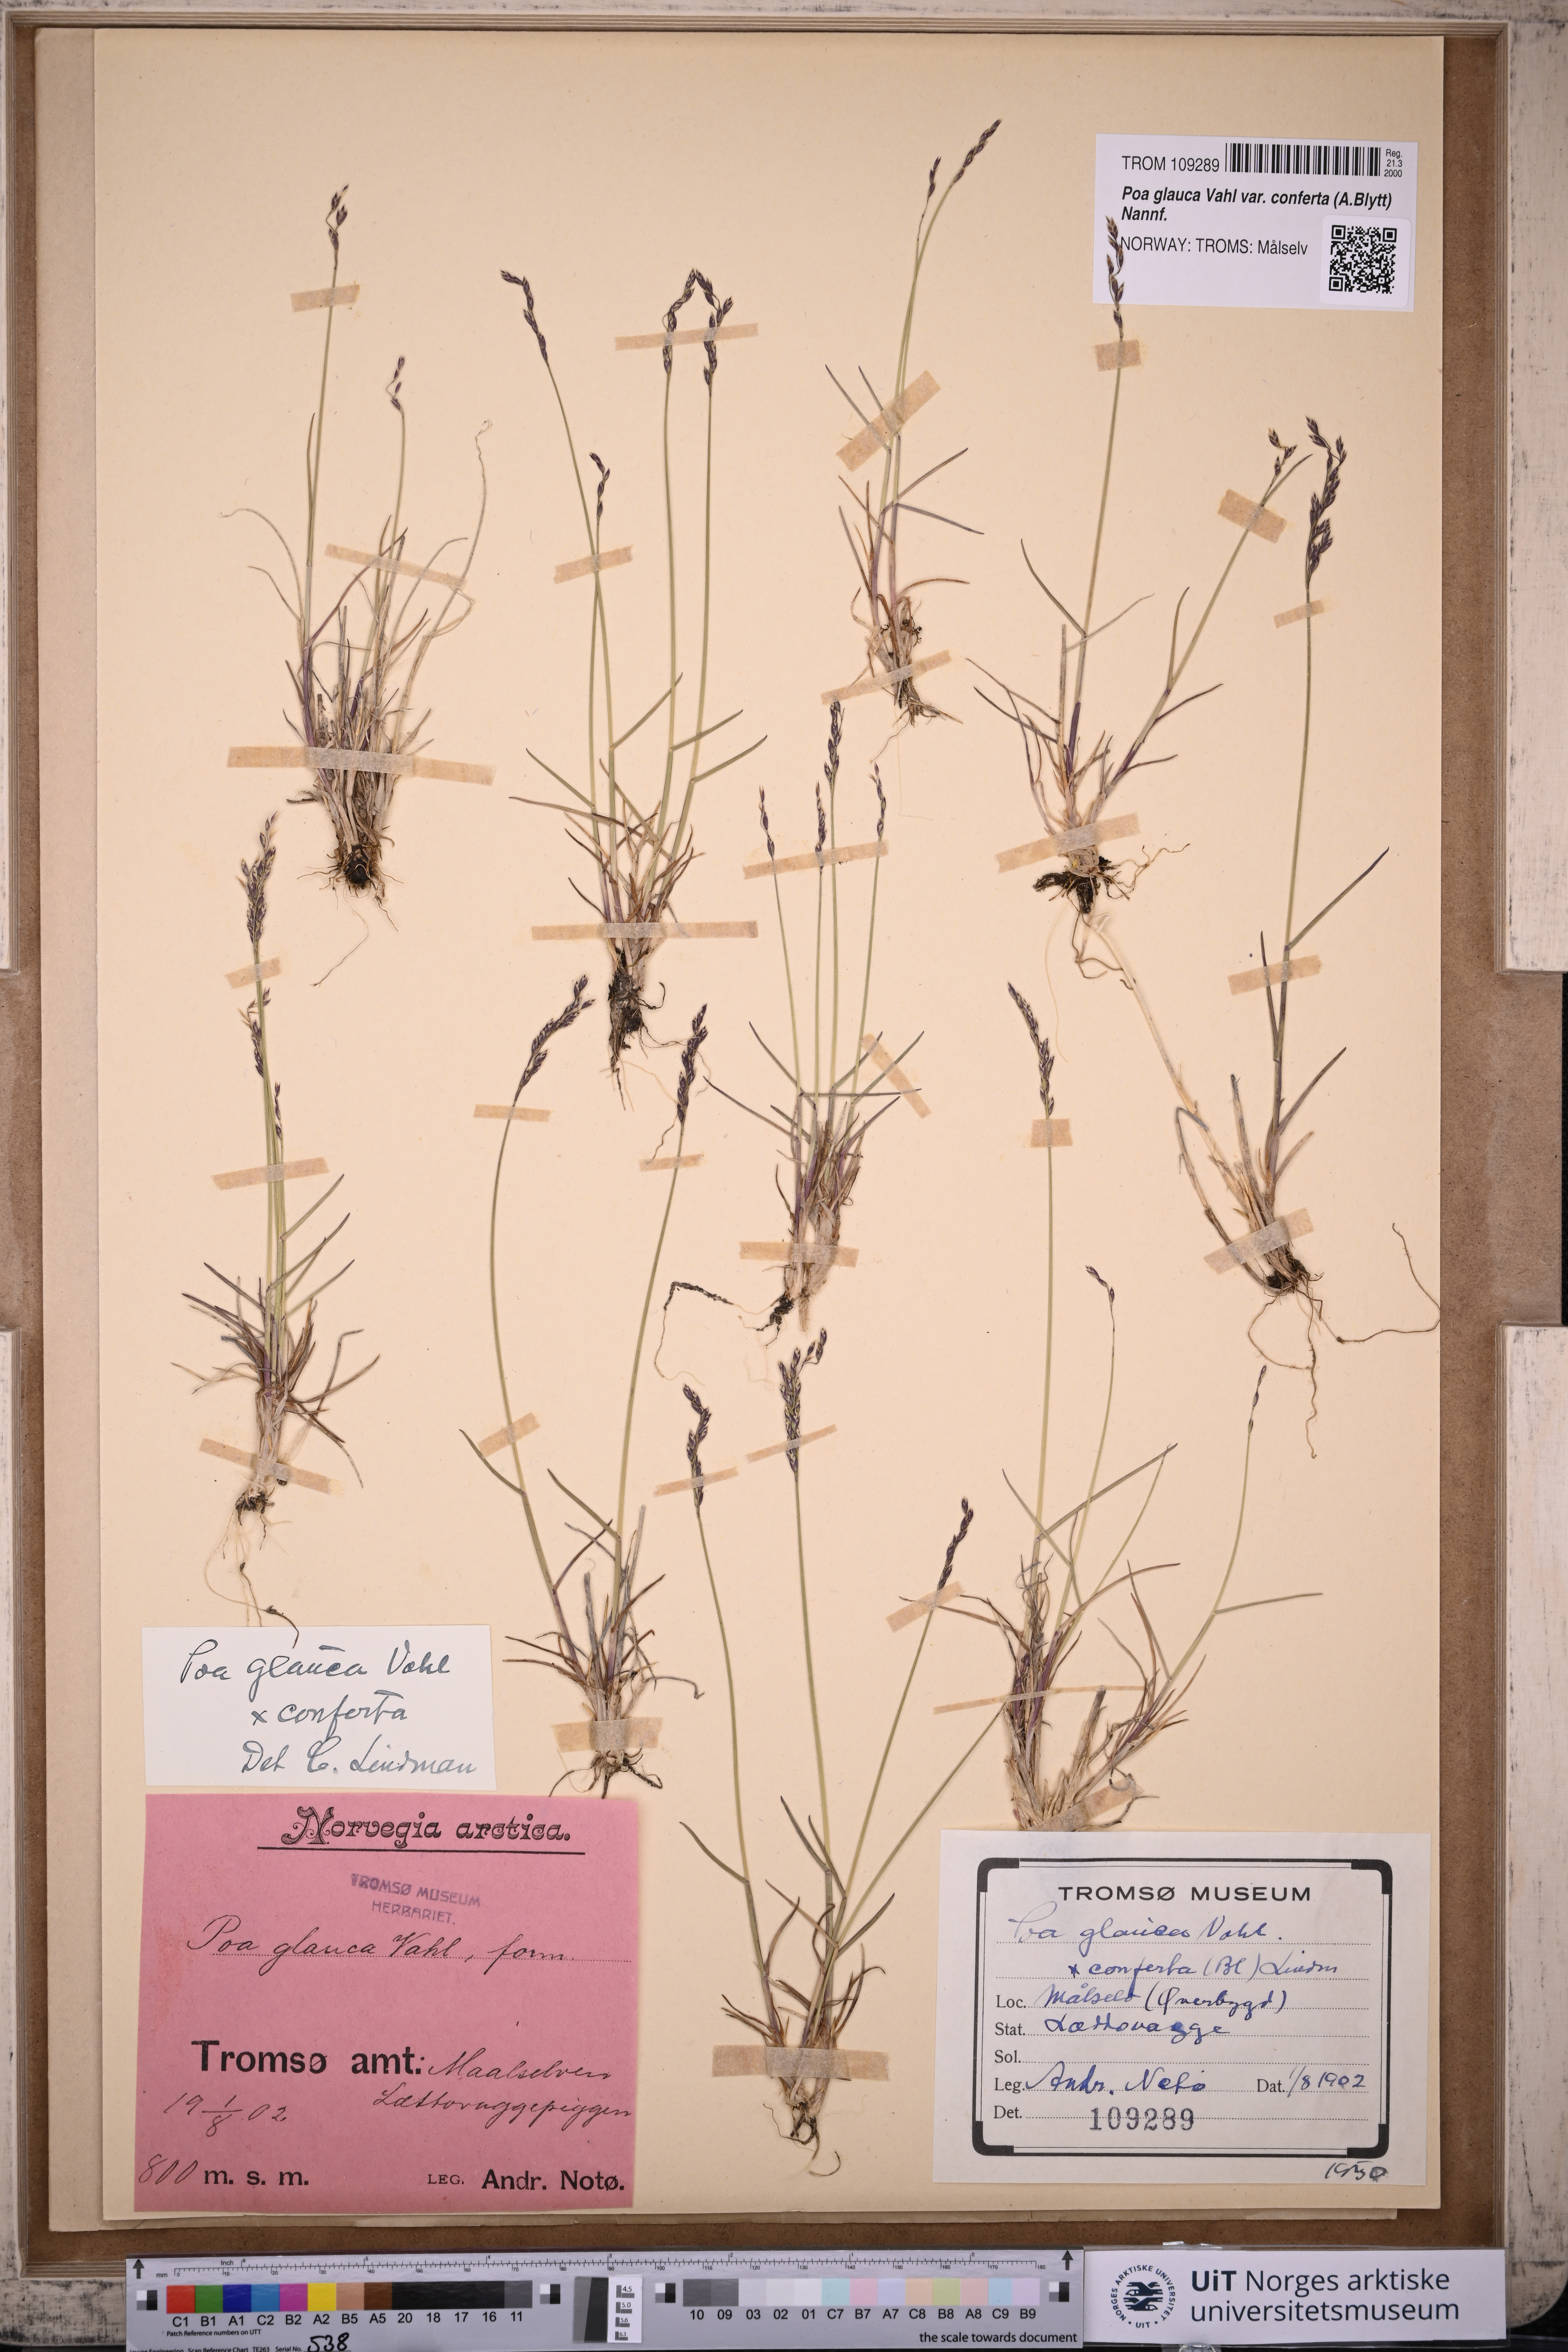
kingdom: Plantae
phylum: Tracheophyta
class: Liliopsida
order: Poales
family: Poaceae
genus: Poa
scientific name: Poa glauca
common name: Glaucous bluegrass
